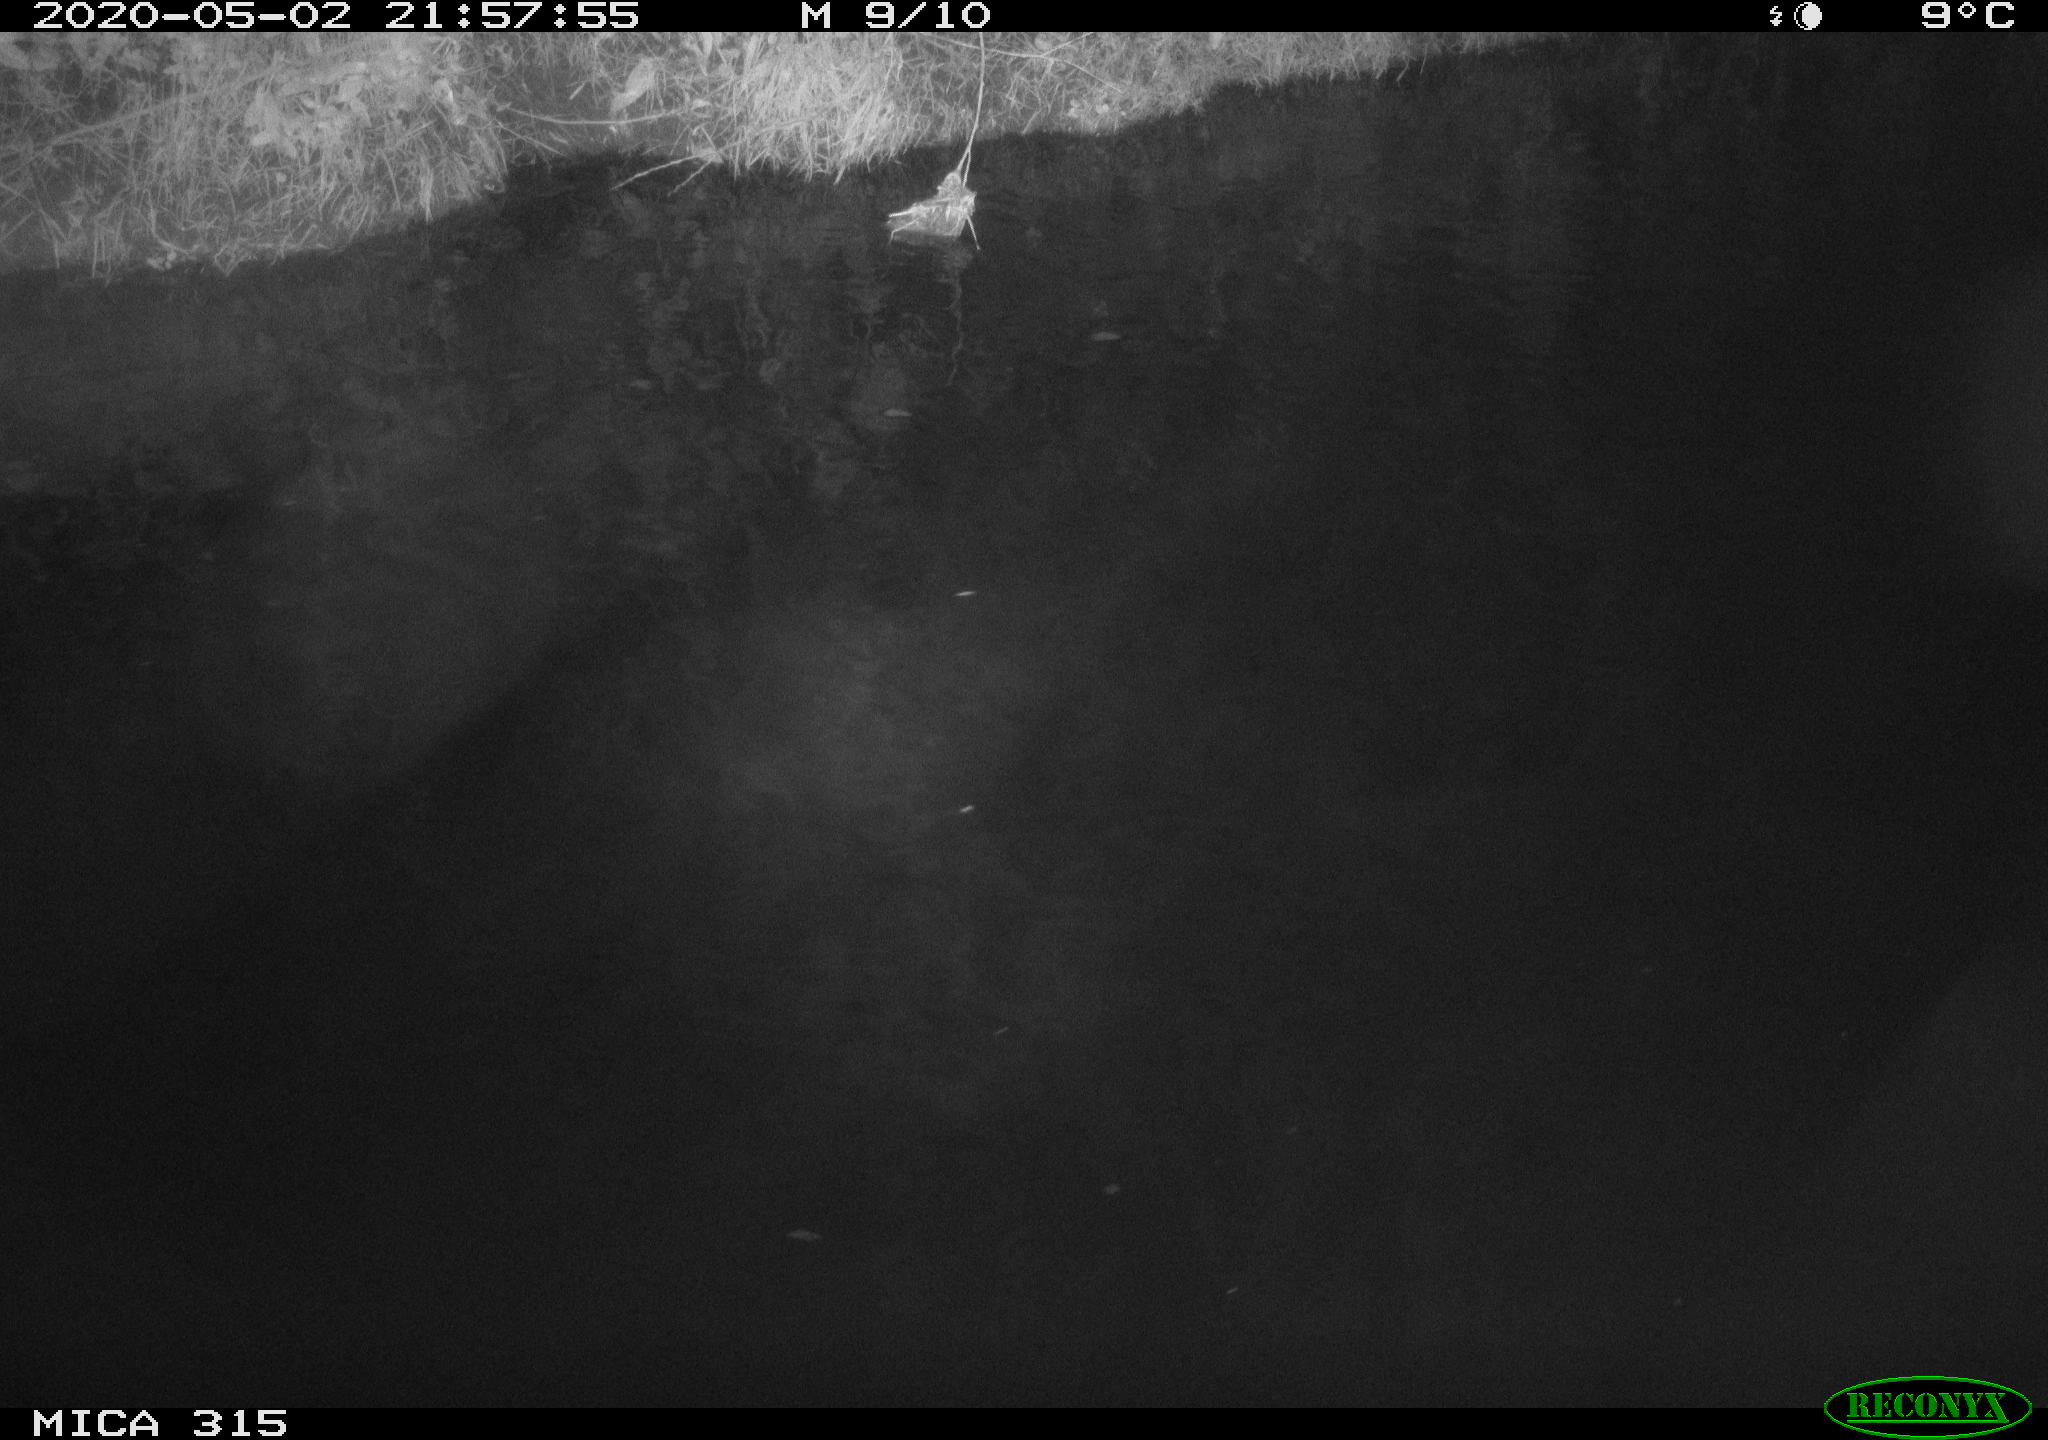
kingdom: Animalia
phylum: Chordata
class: Aves
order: Anseriformes
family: Anatidae
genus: Anas
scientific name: Anas platyrhynchos
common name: Mallard
